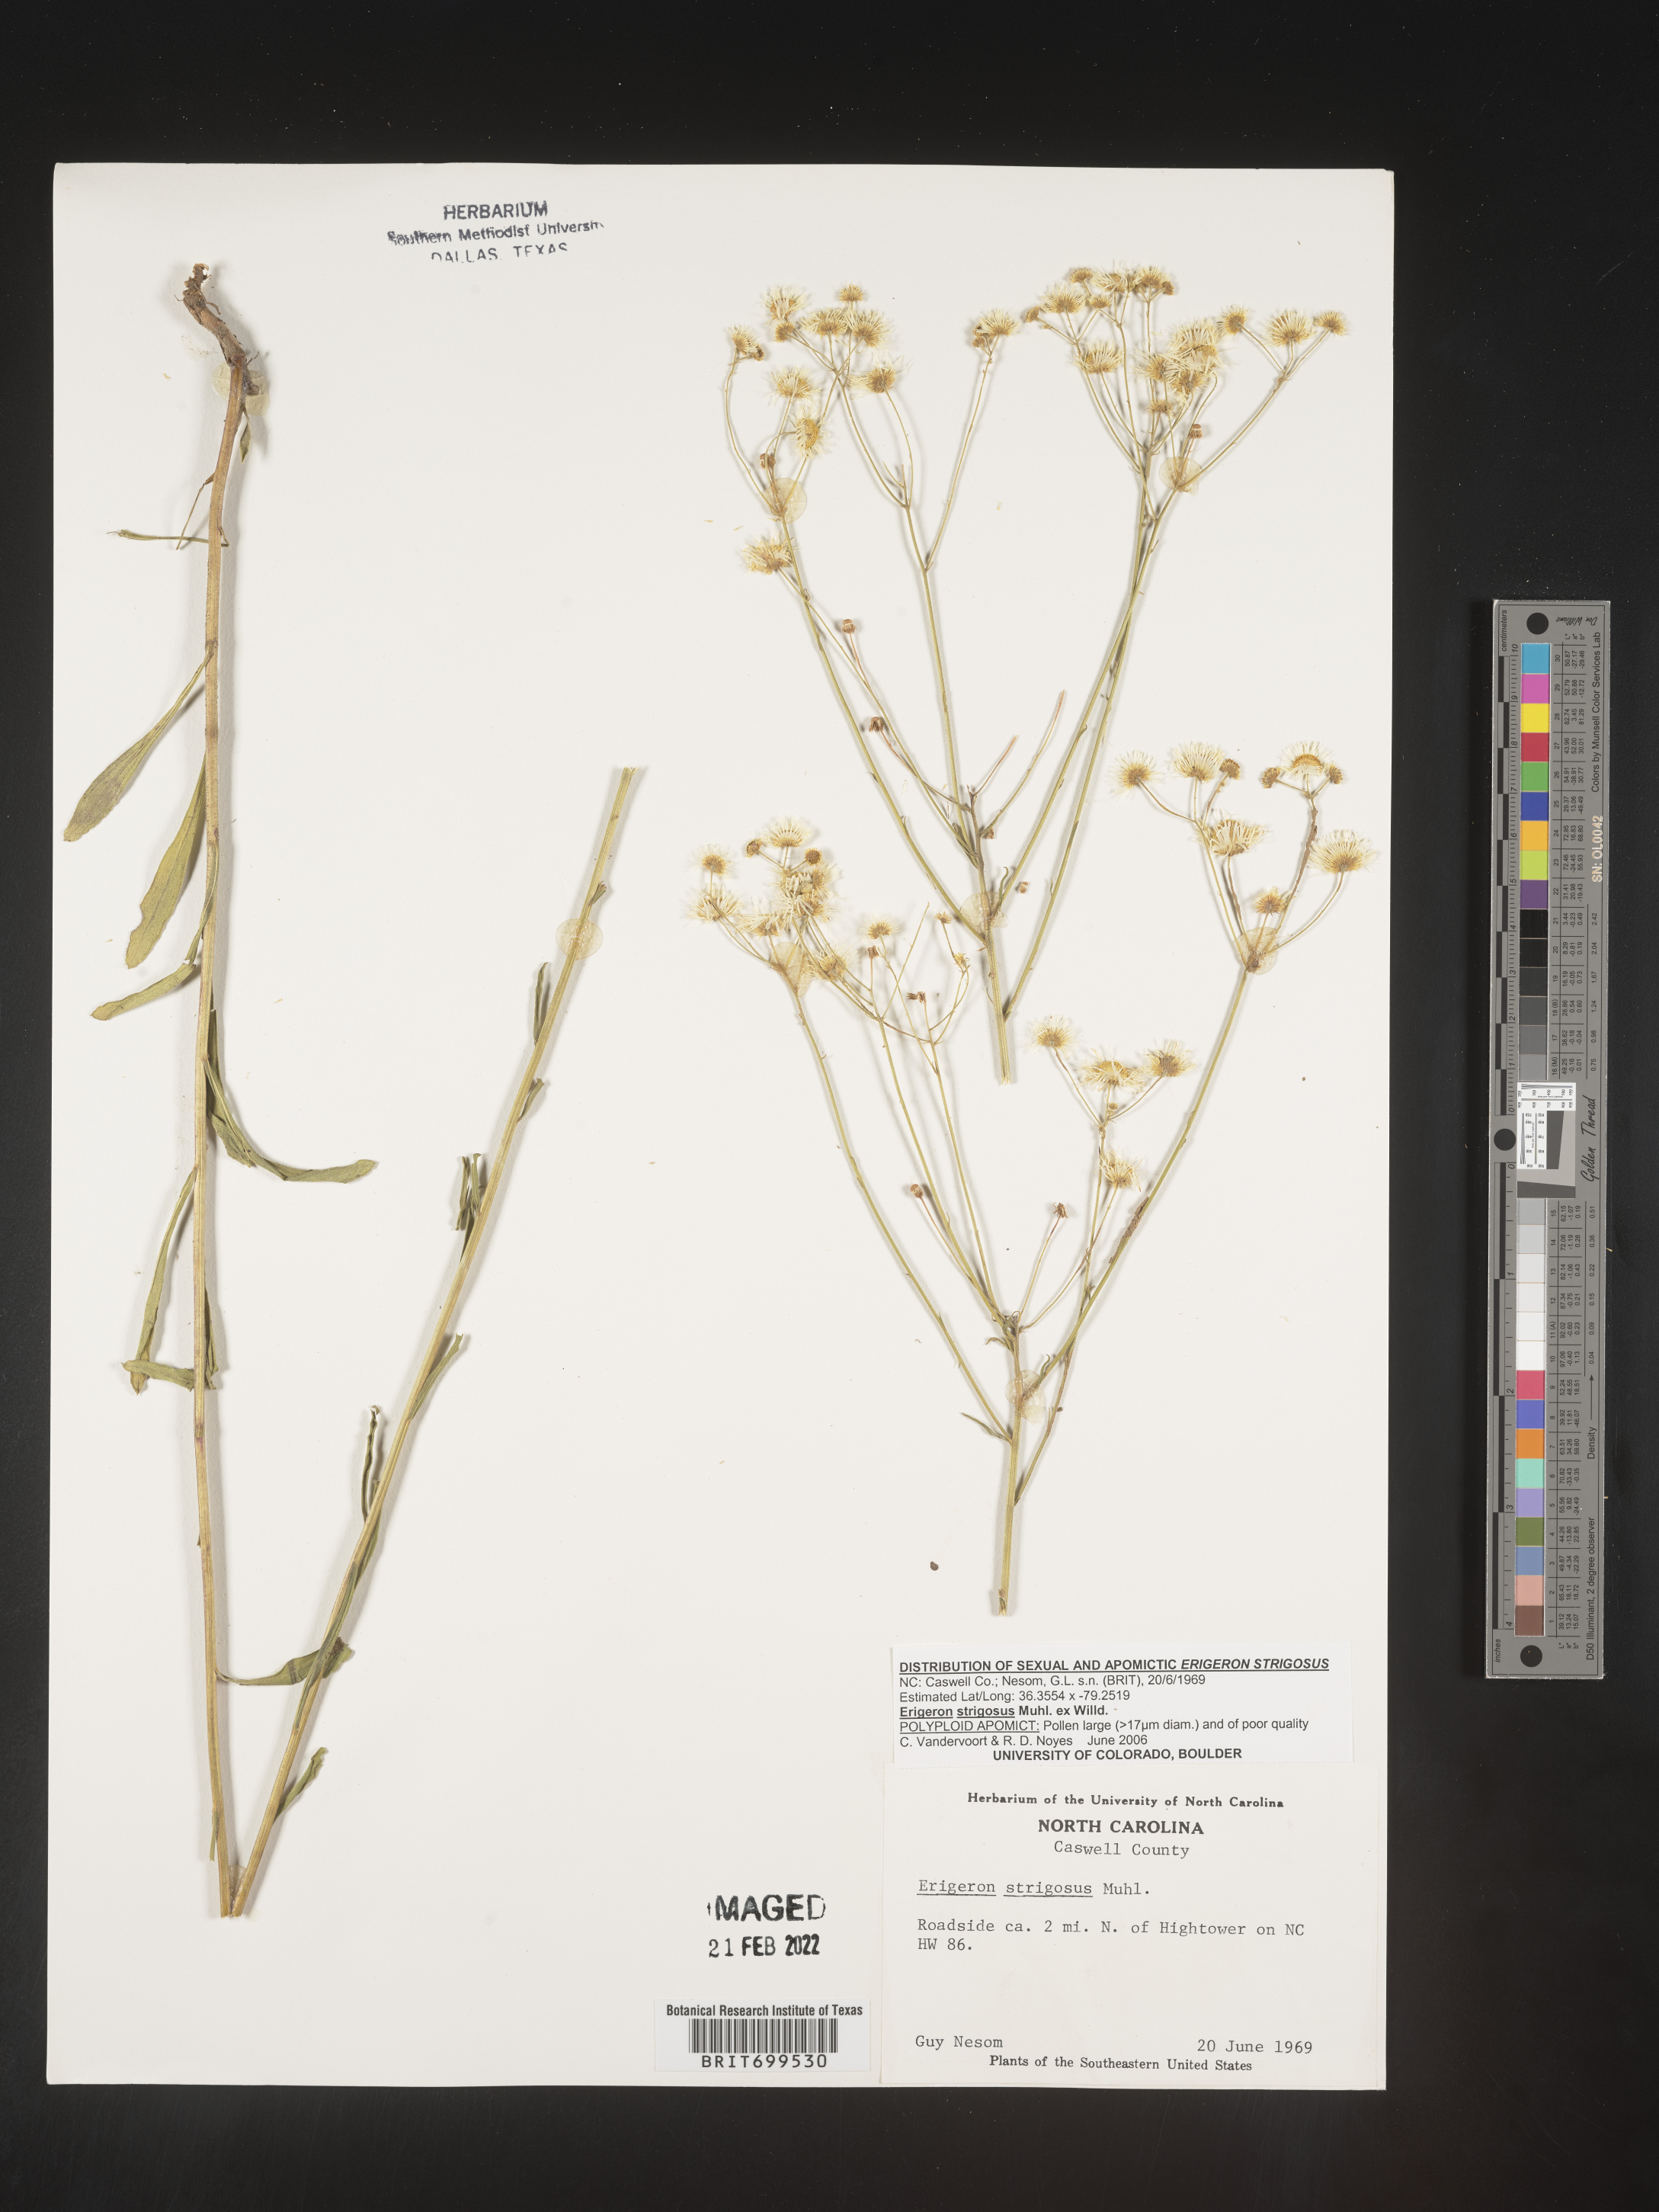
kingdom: Plantae
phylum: Tracheophyta
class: Magnoliopsida
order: Asterales
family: Asteraceae
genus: Erigeron
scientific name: Erigeron strigosus
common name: Common eastern fleabane
